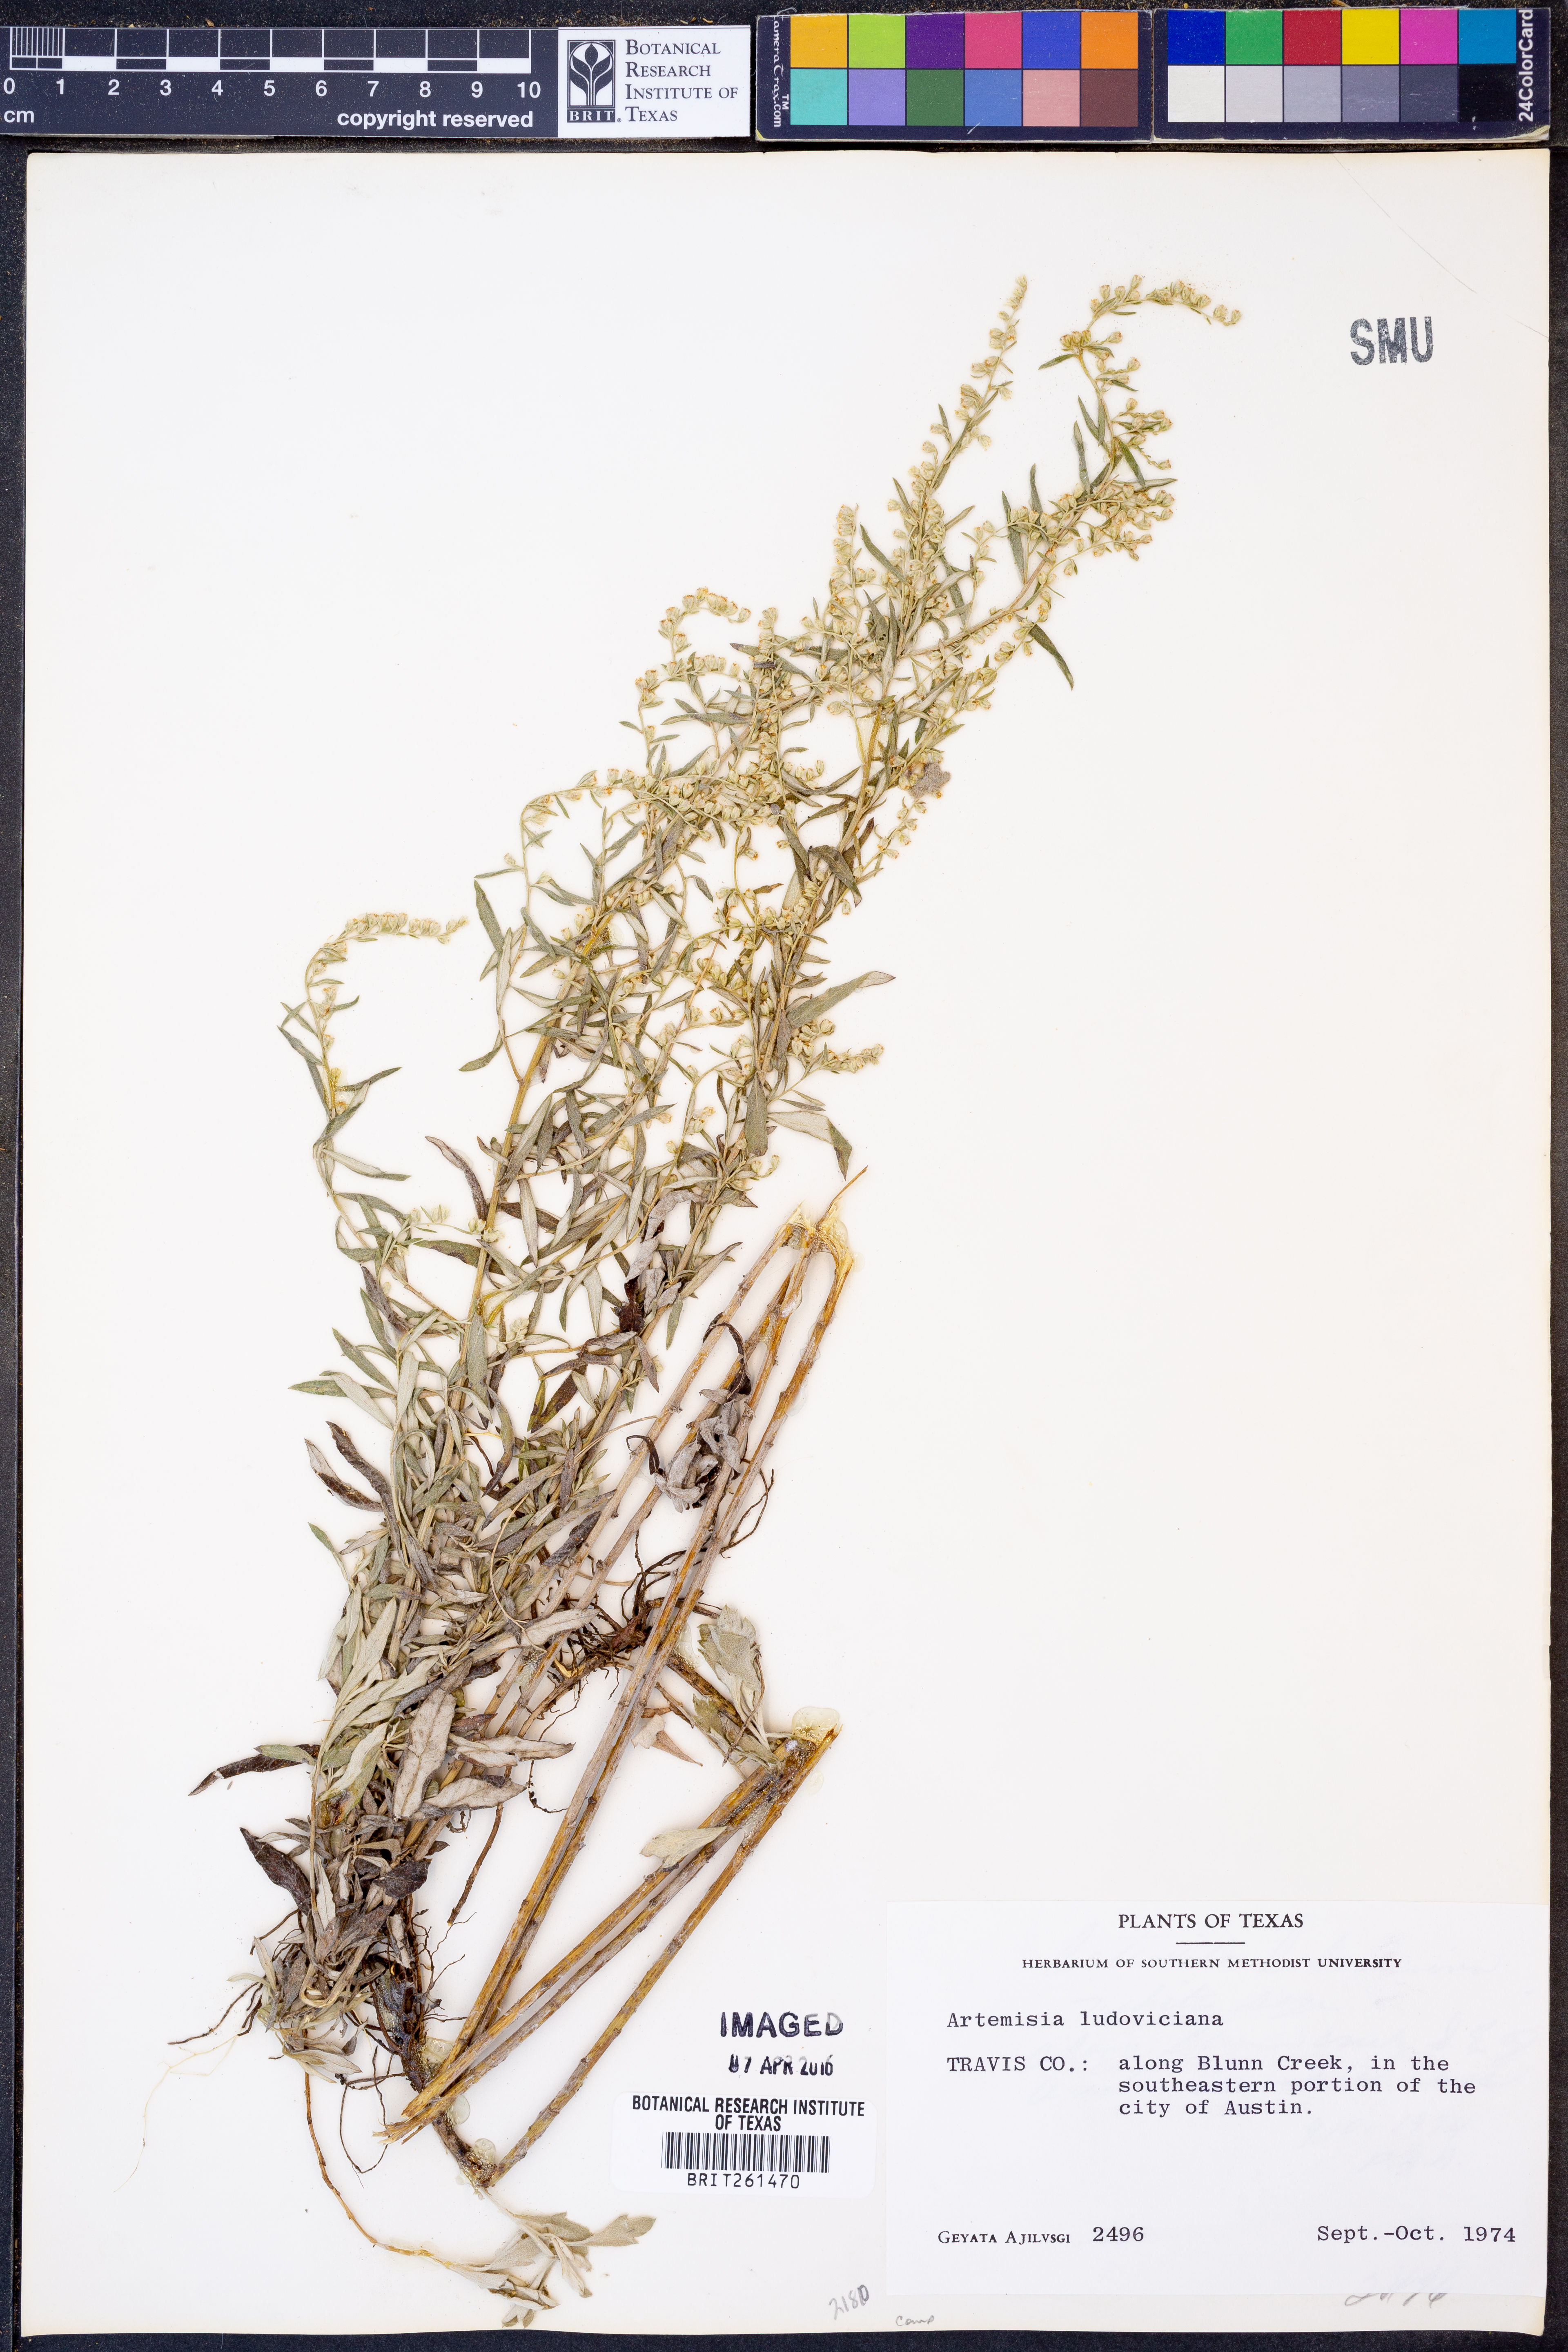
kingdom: Plantae
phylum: Tracheophyta
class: Magnoliopsida
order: Asterales
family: Asteraceae
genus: Artemisia
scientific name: Artemisia ludoviciana
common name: Western mugwort
